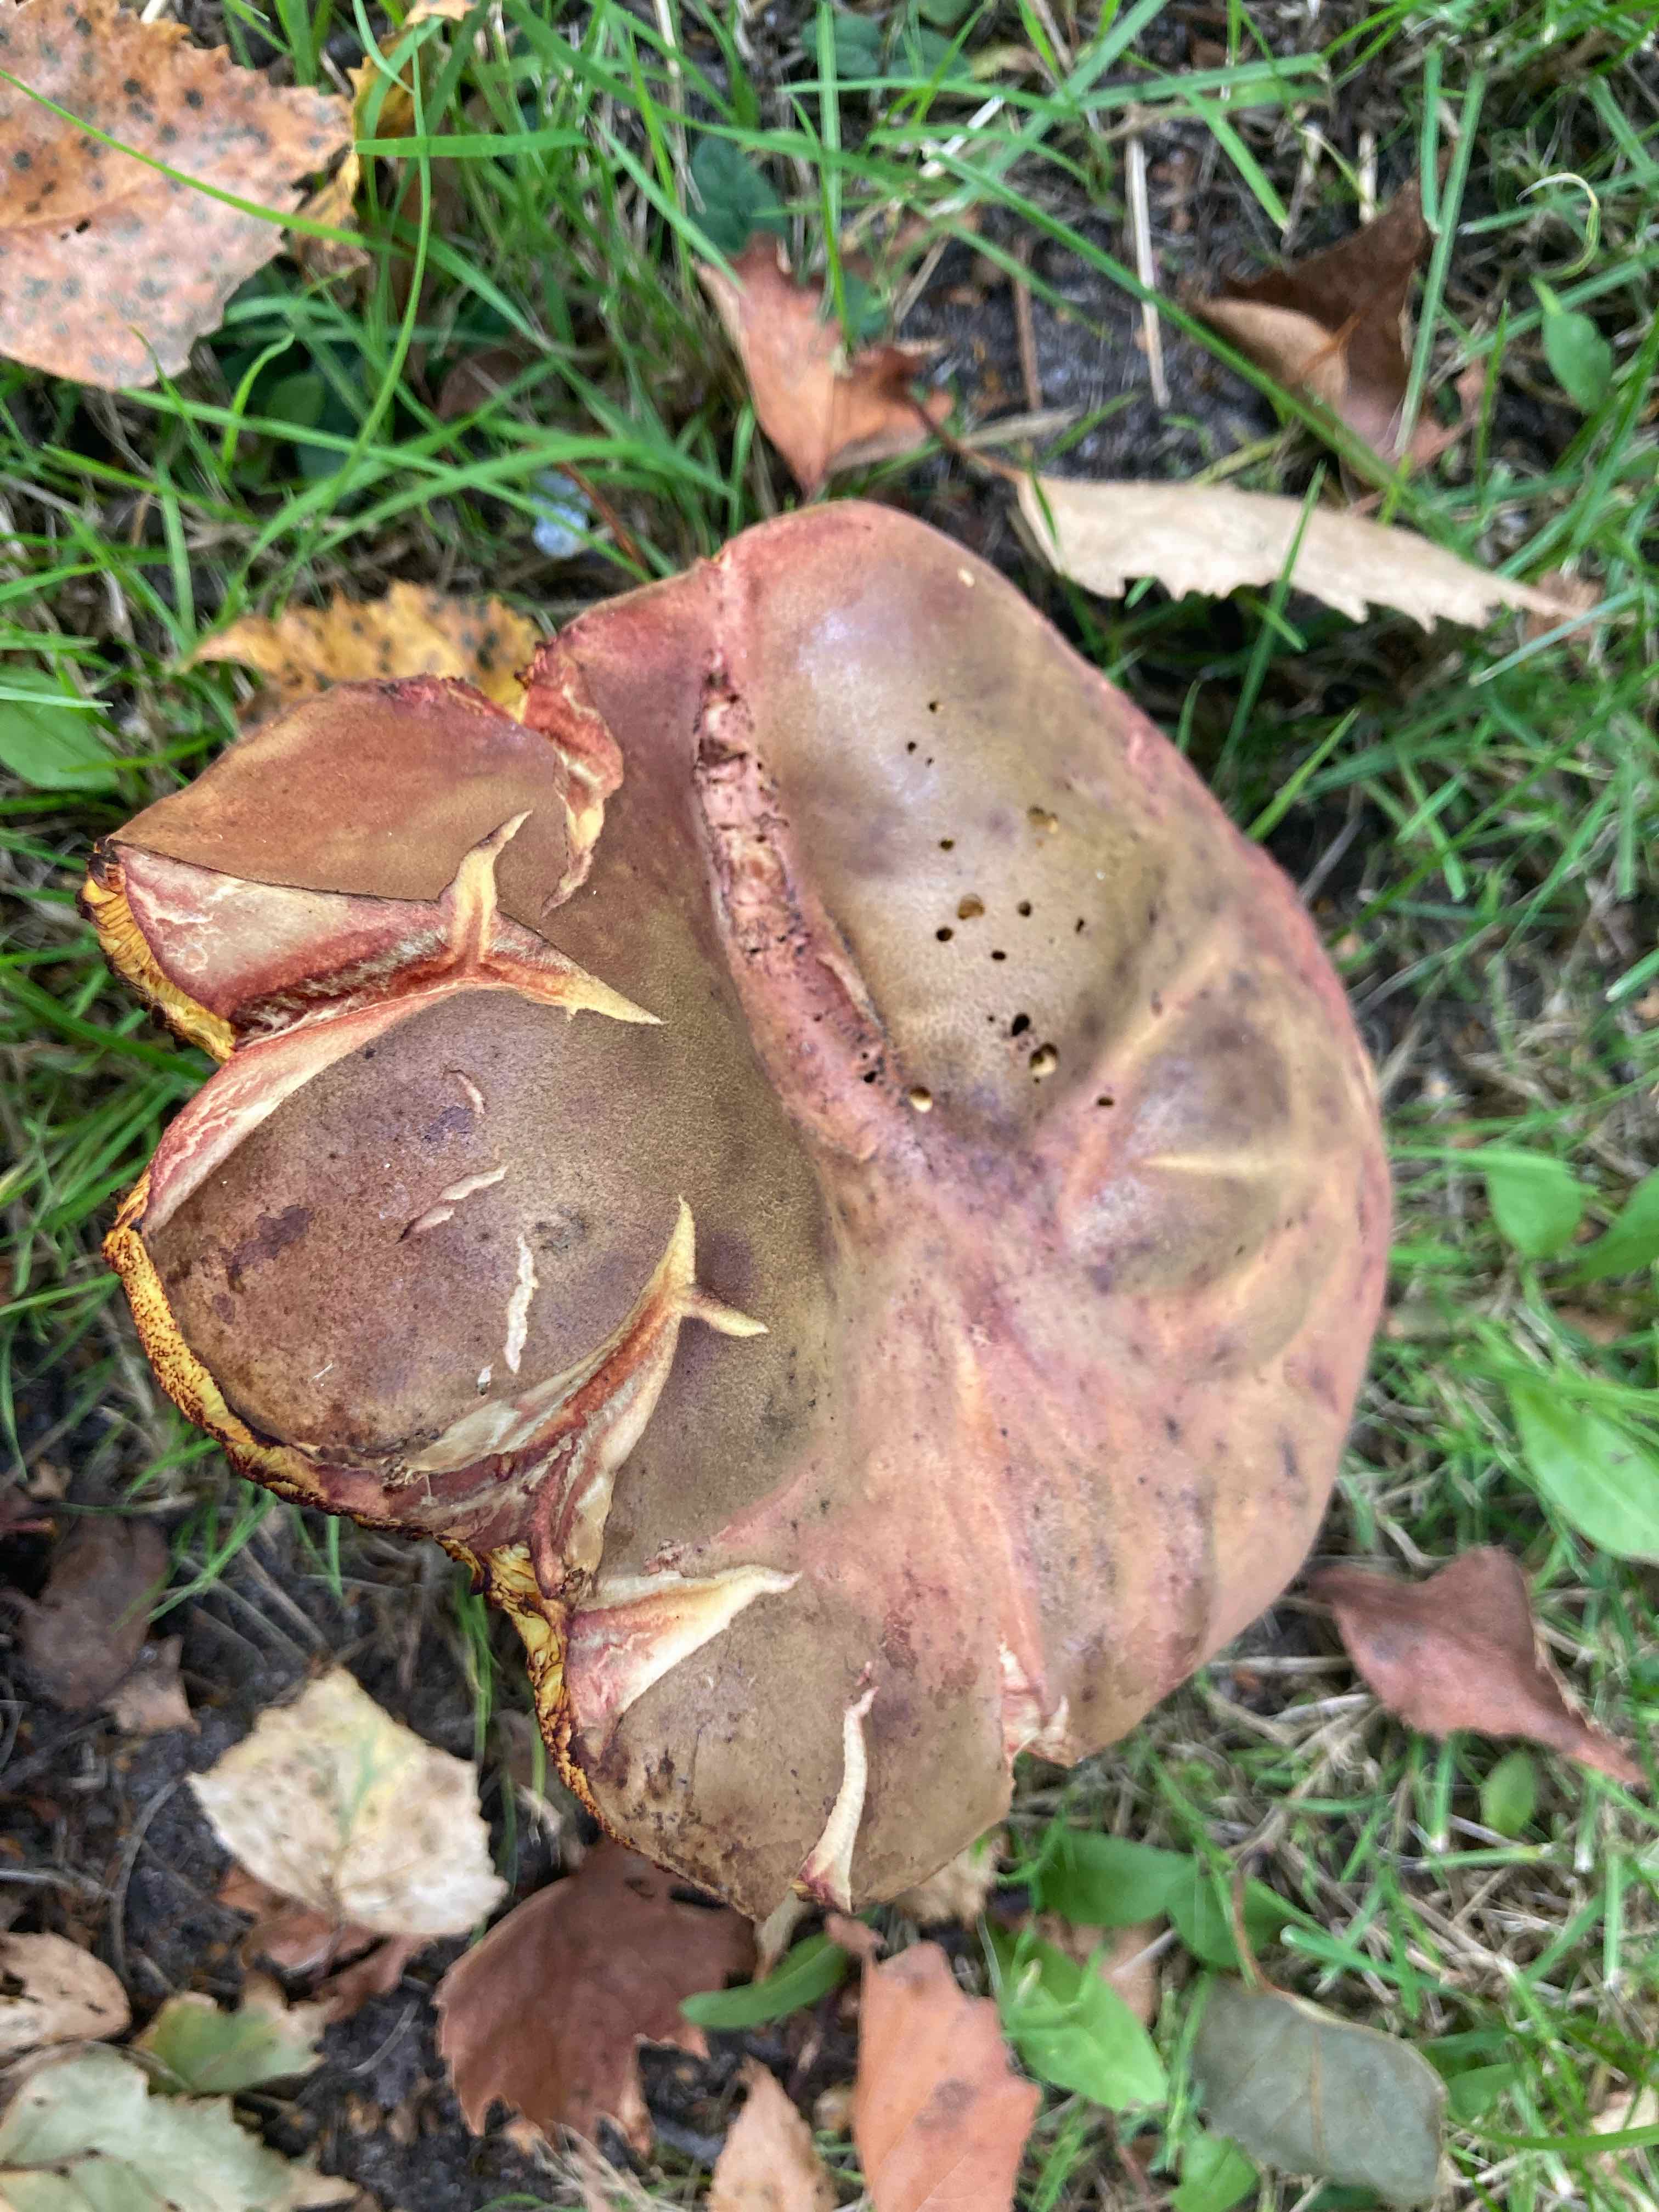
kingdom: Fungi
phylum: Basidiomycota
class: Agaricomycetes
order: Boletales
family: Boletaceae
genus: Suillellus
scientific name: Suillellus luridus
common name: netstokket indigorørhat
